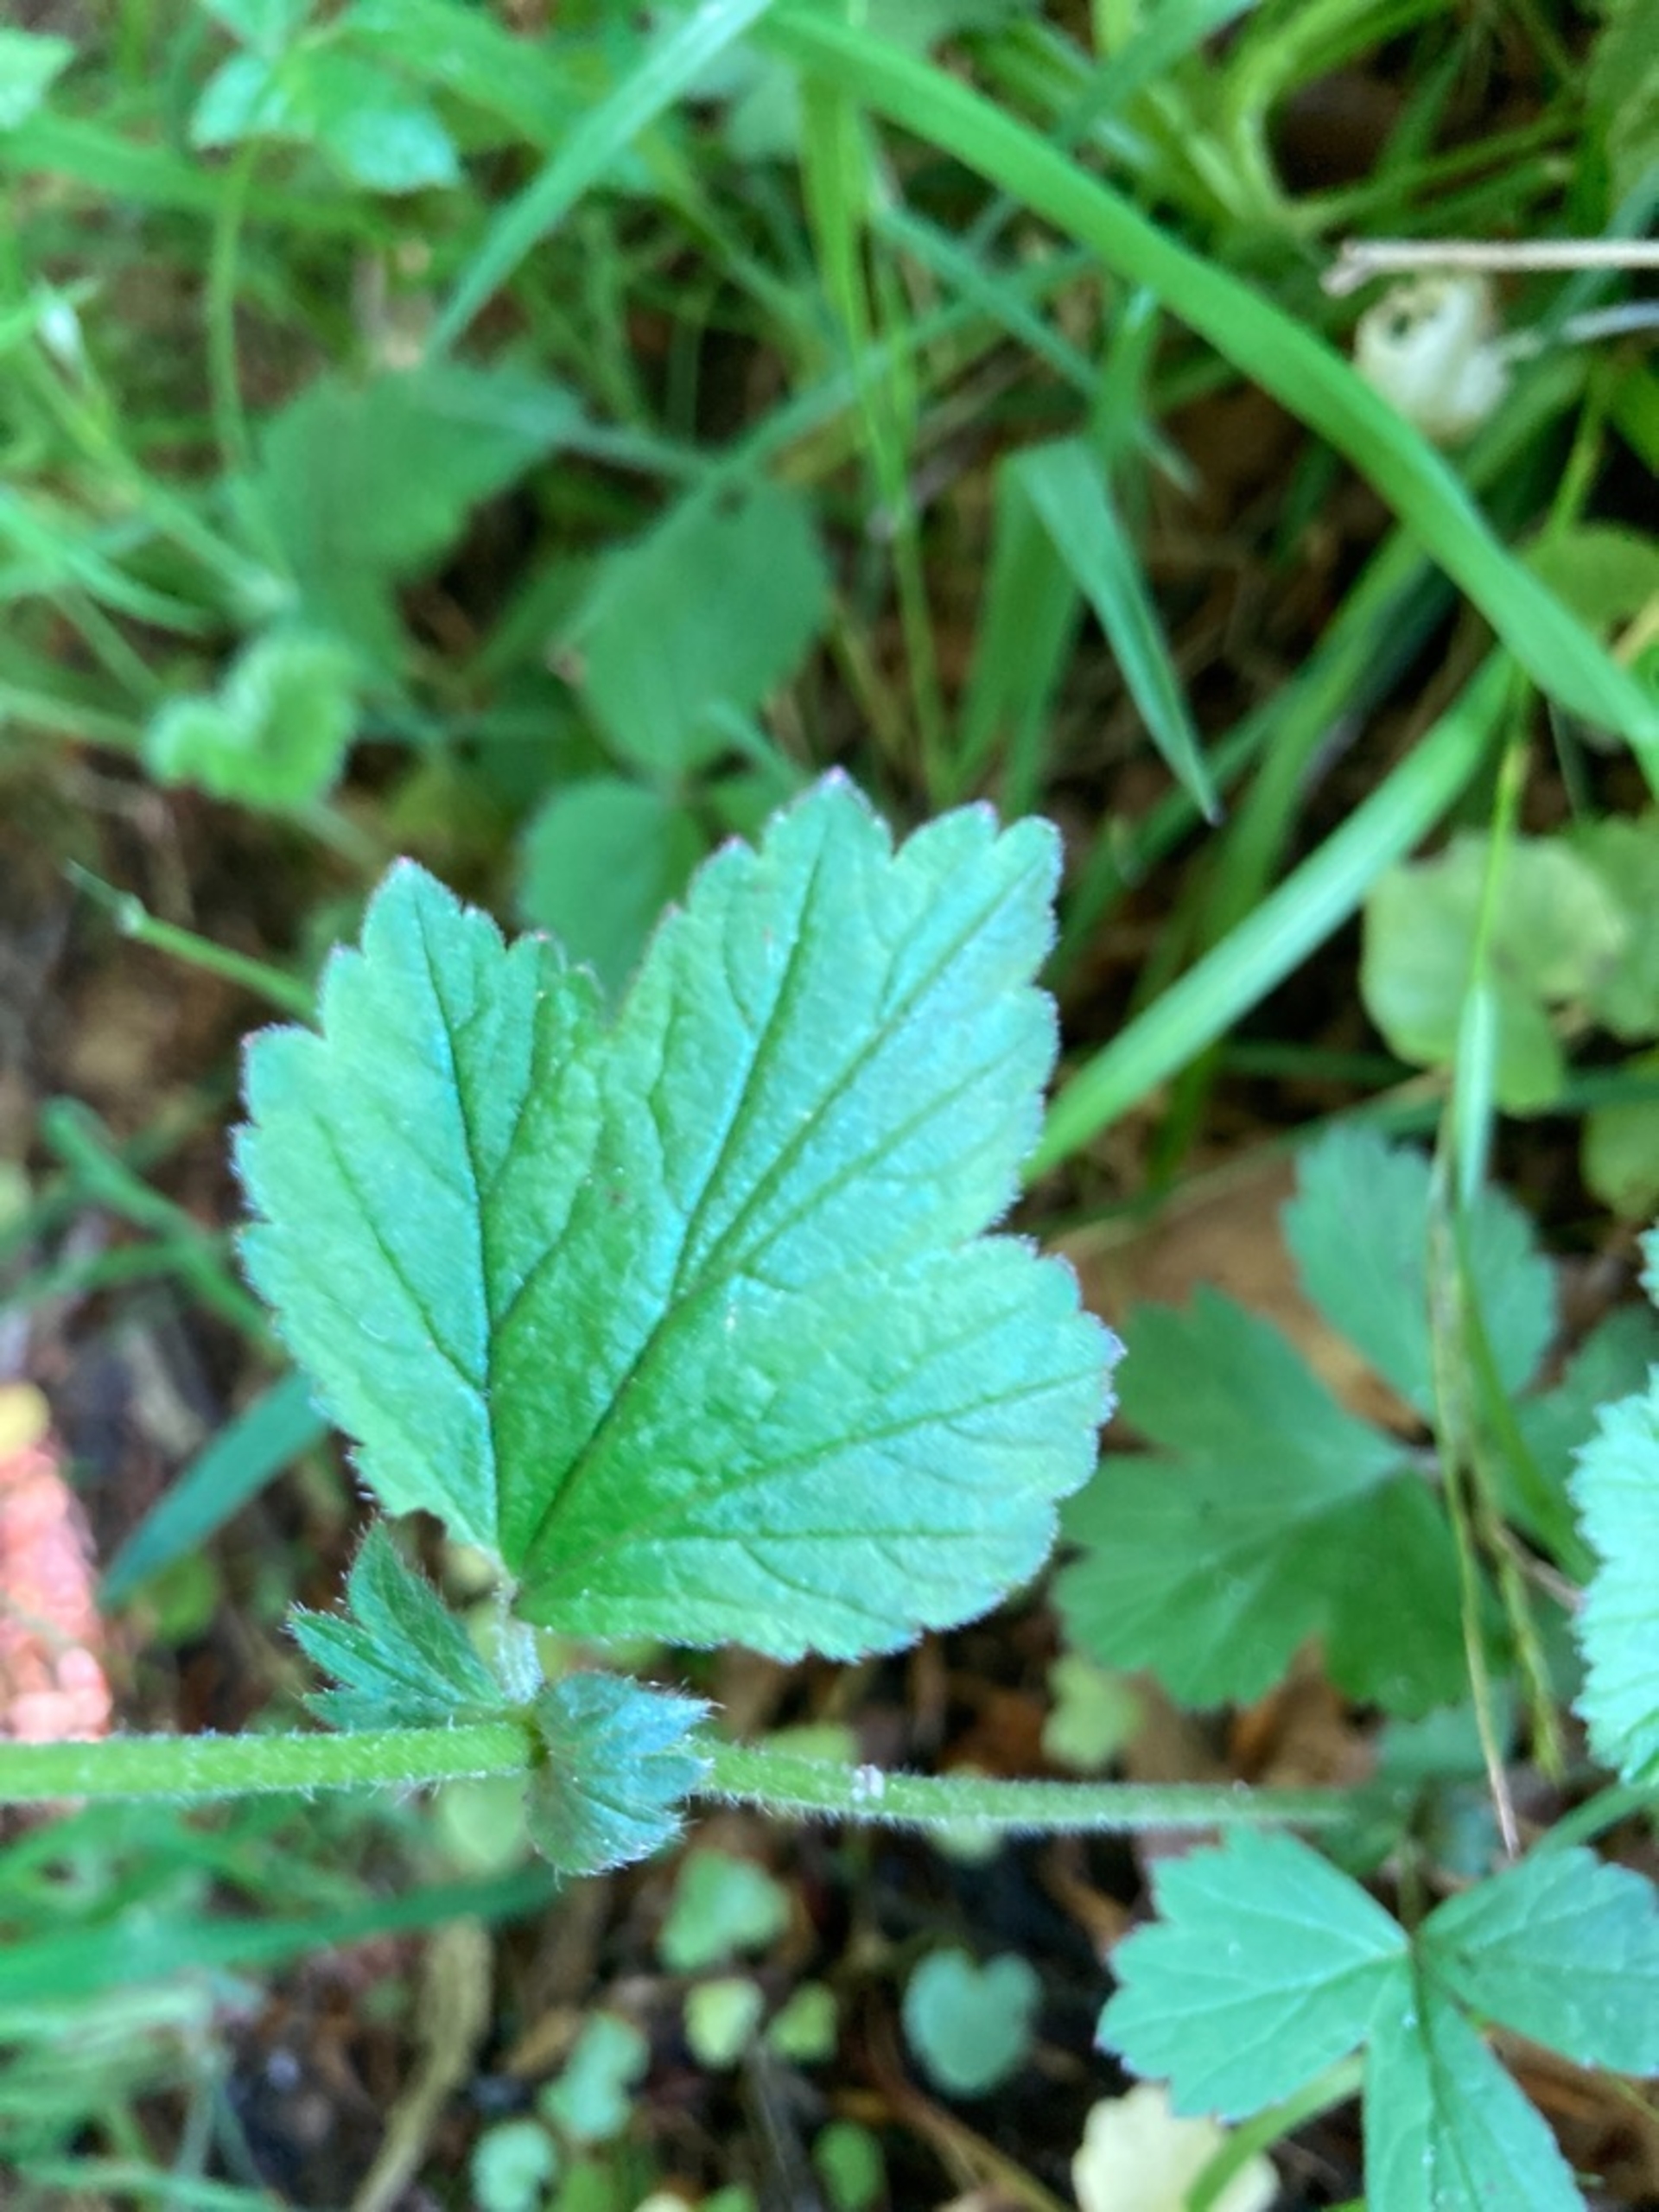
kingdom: Plantae
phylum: Tracheophyta
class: Magnoliopsida
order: Rosales
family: Rosaceae
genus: Geum
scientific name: Geum urbanum
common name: Feber-nellikerod
